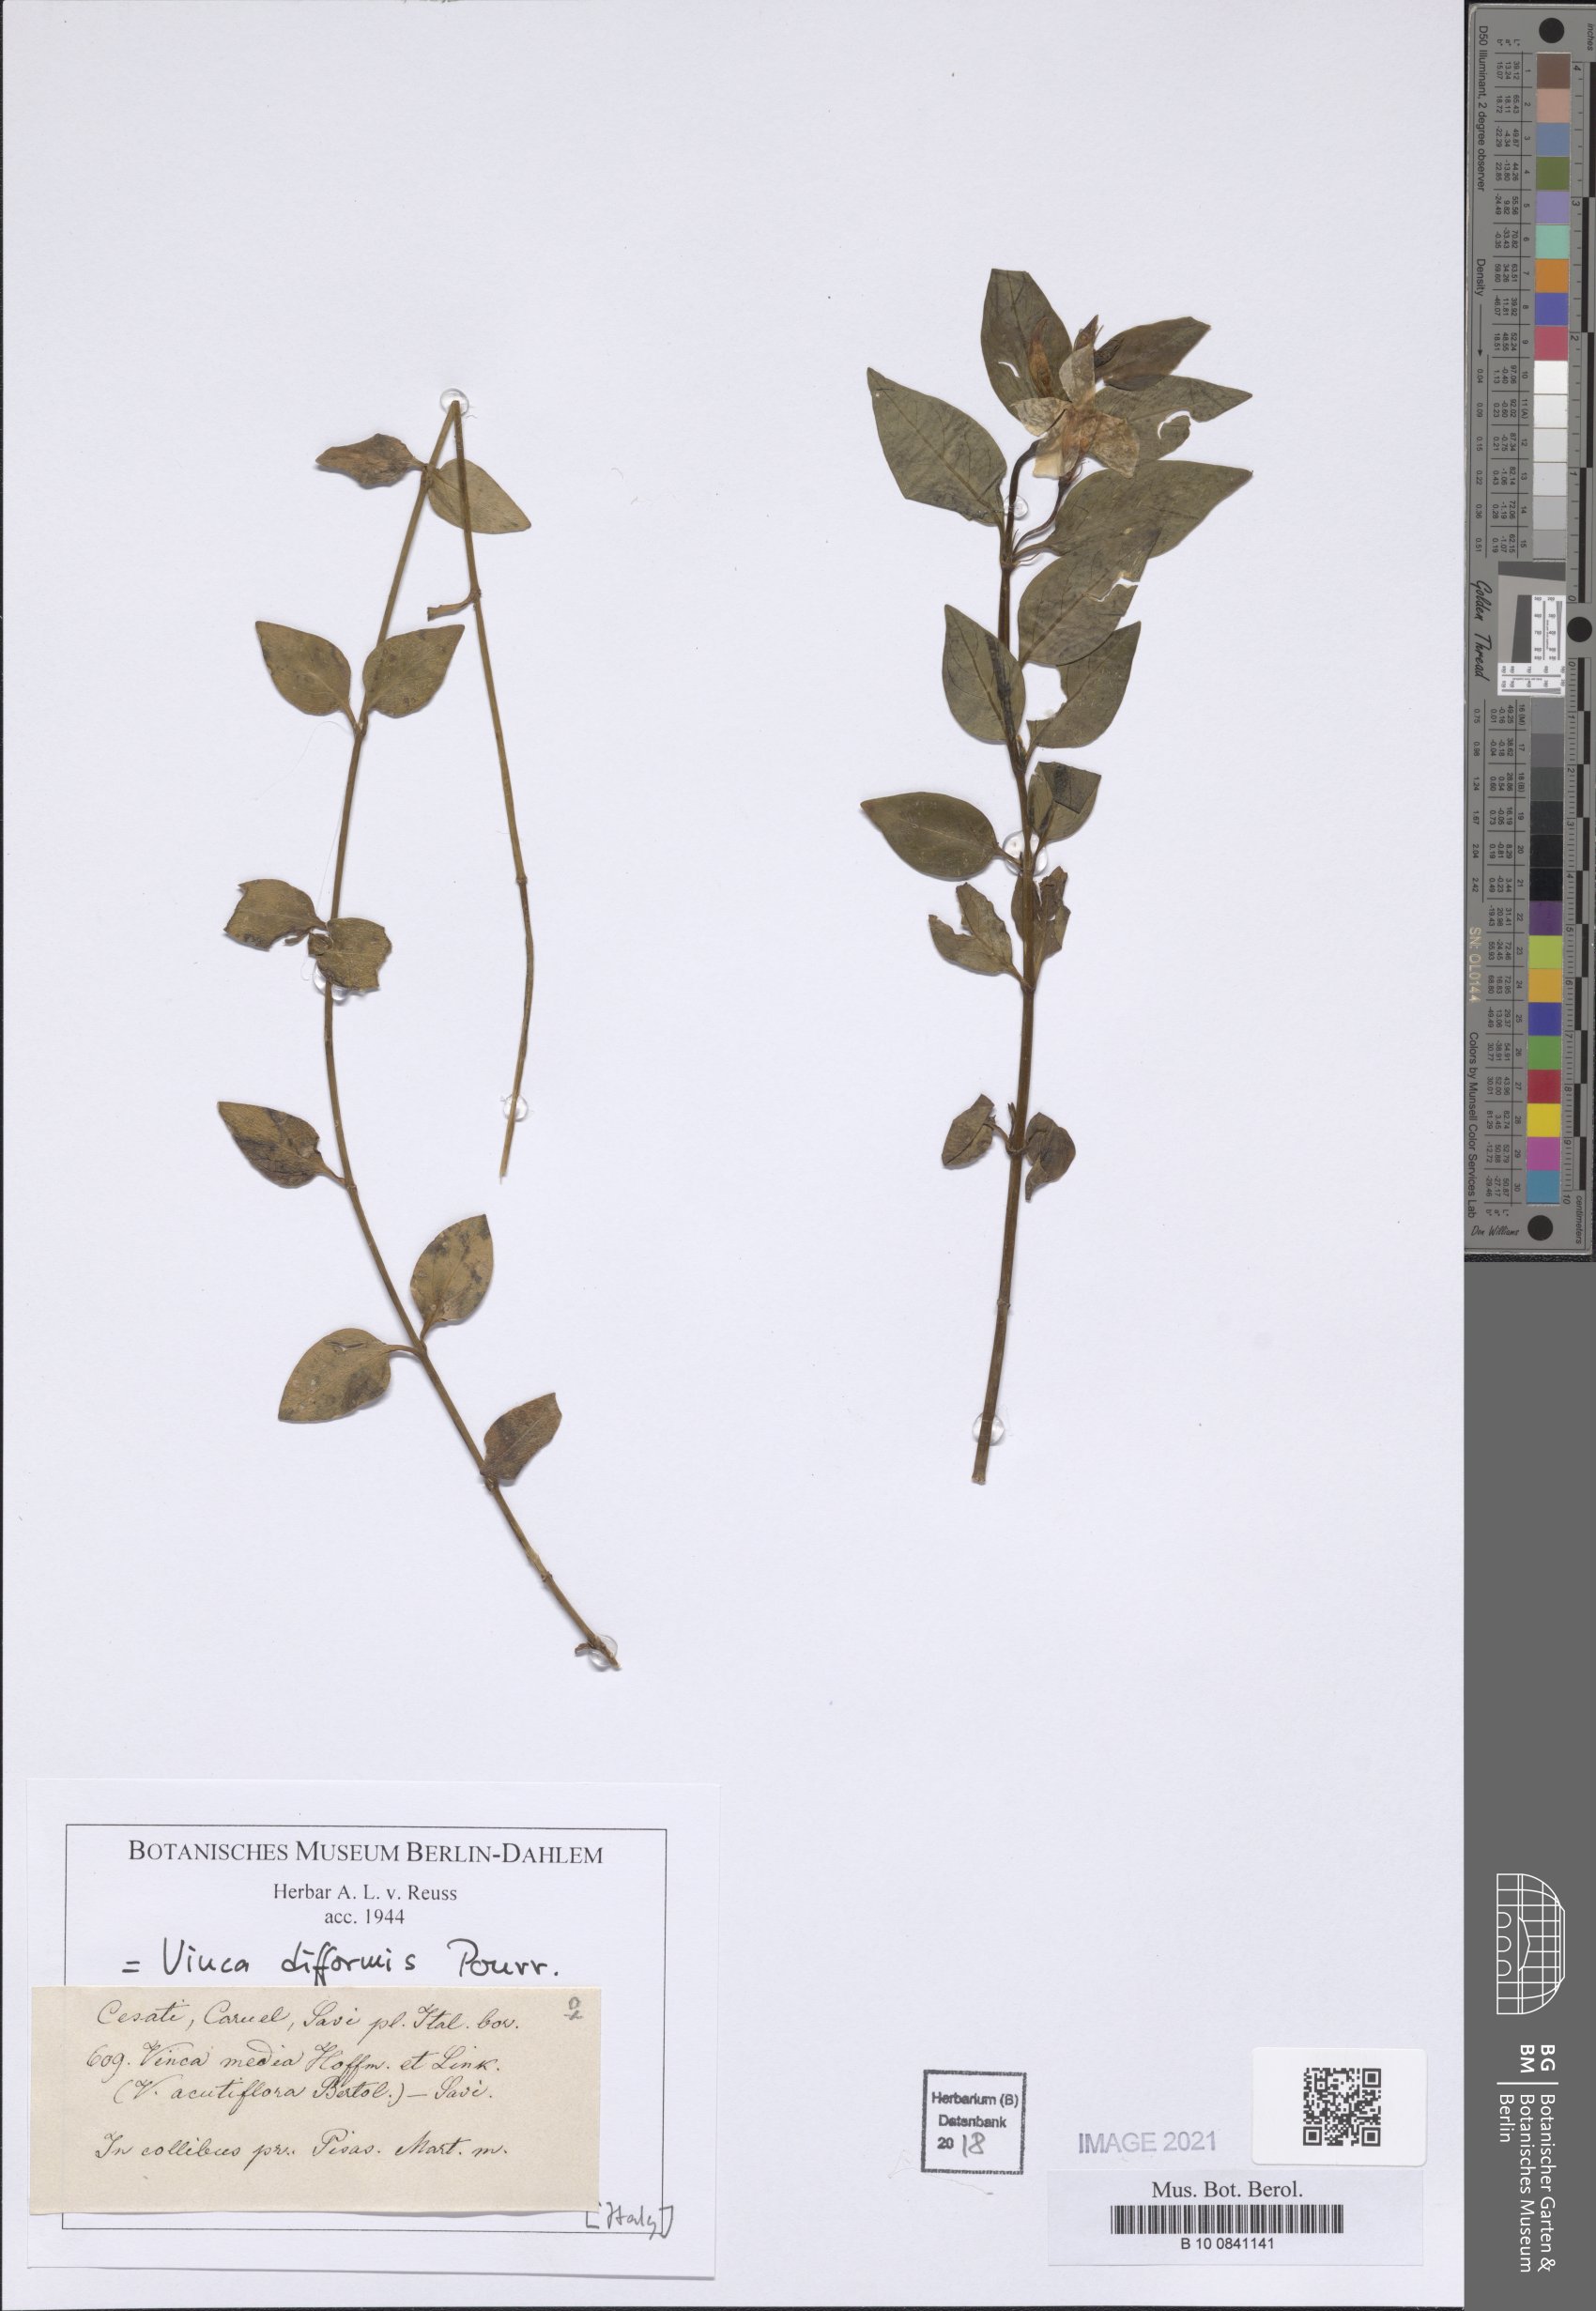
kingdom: Plantae
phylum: Tracheophyta
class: Magnoliopsida
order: Gentianales
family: Apocynaceae
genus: Vinca
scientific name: Vinca difformis
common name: Intermediate periwinkle
